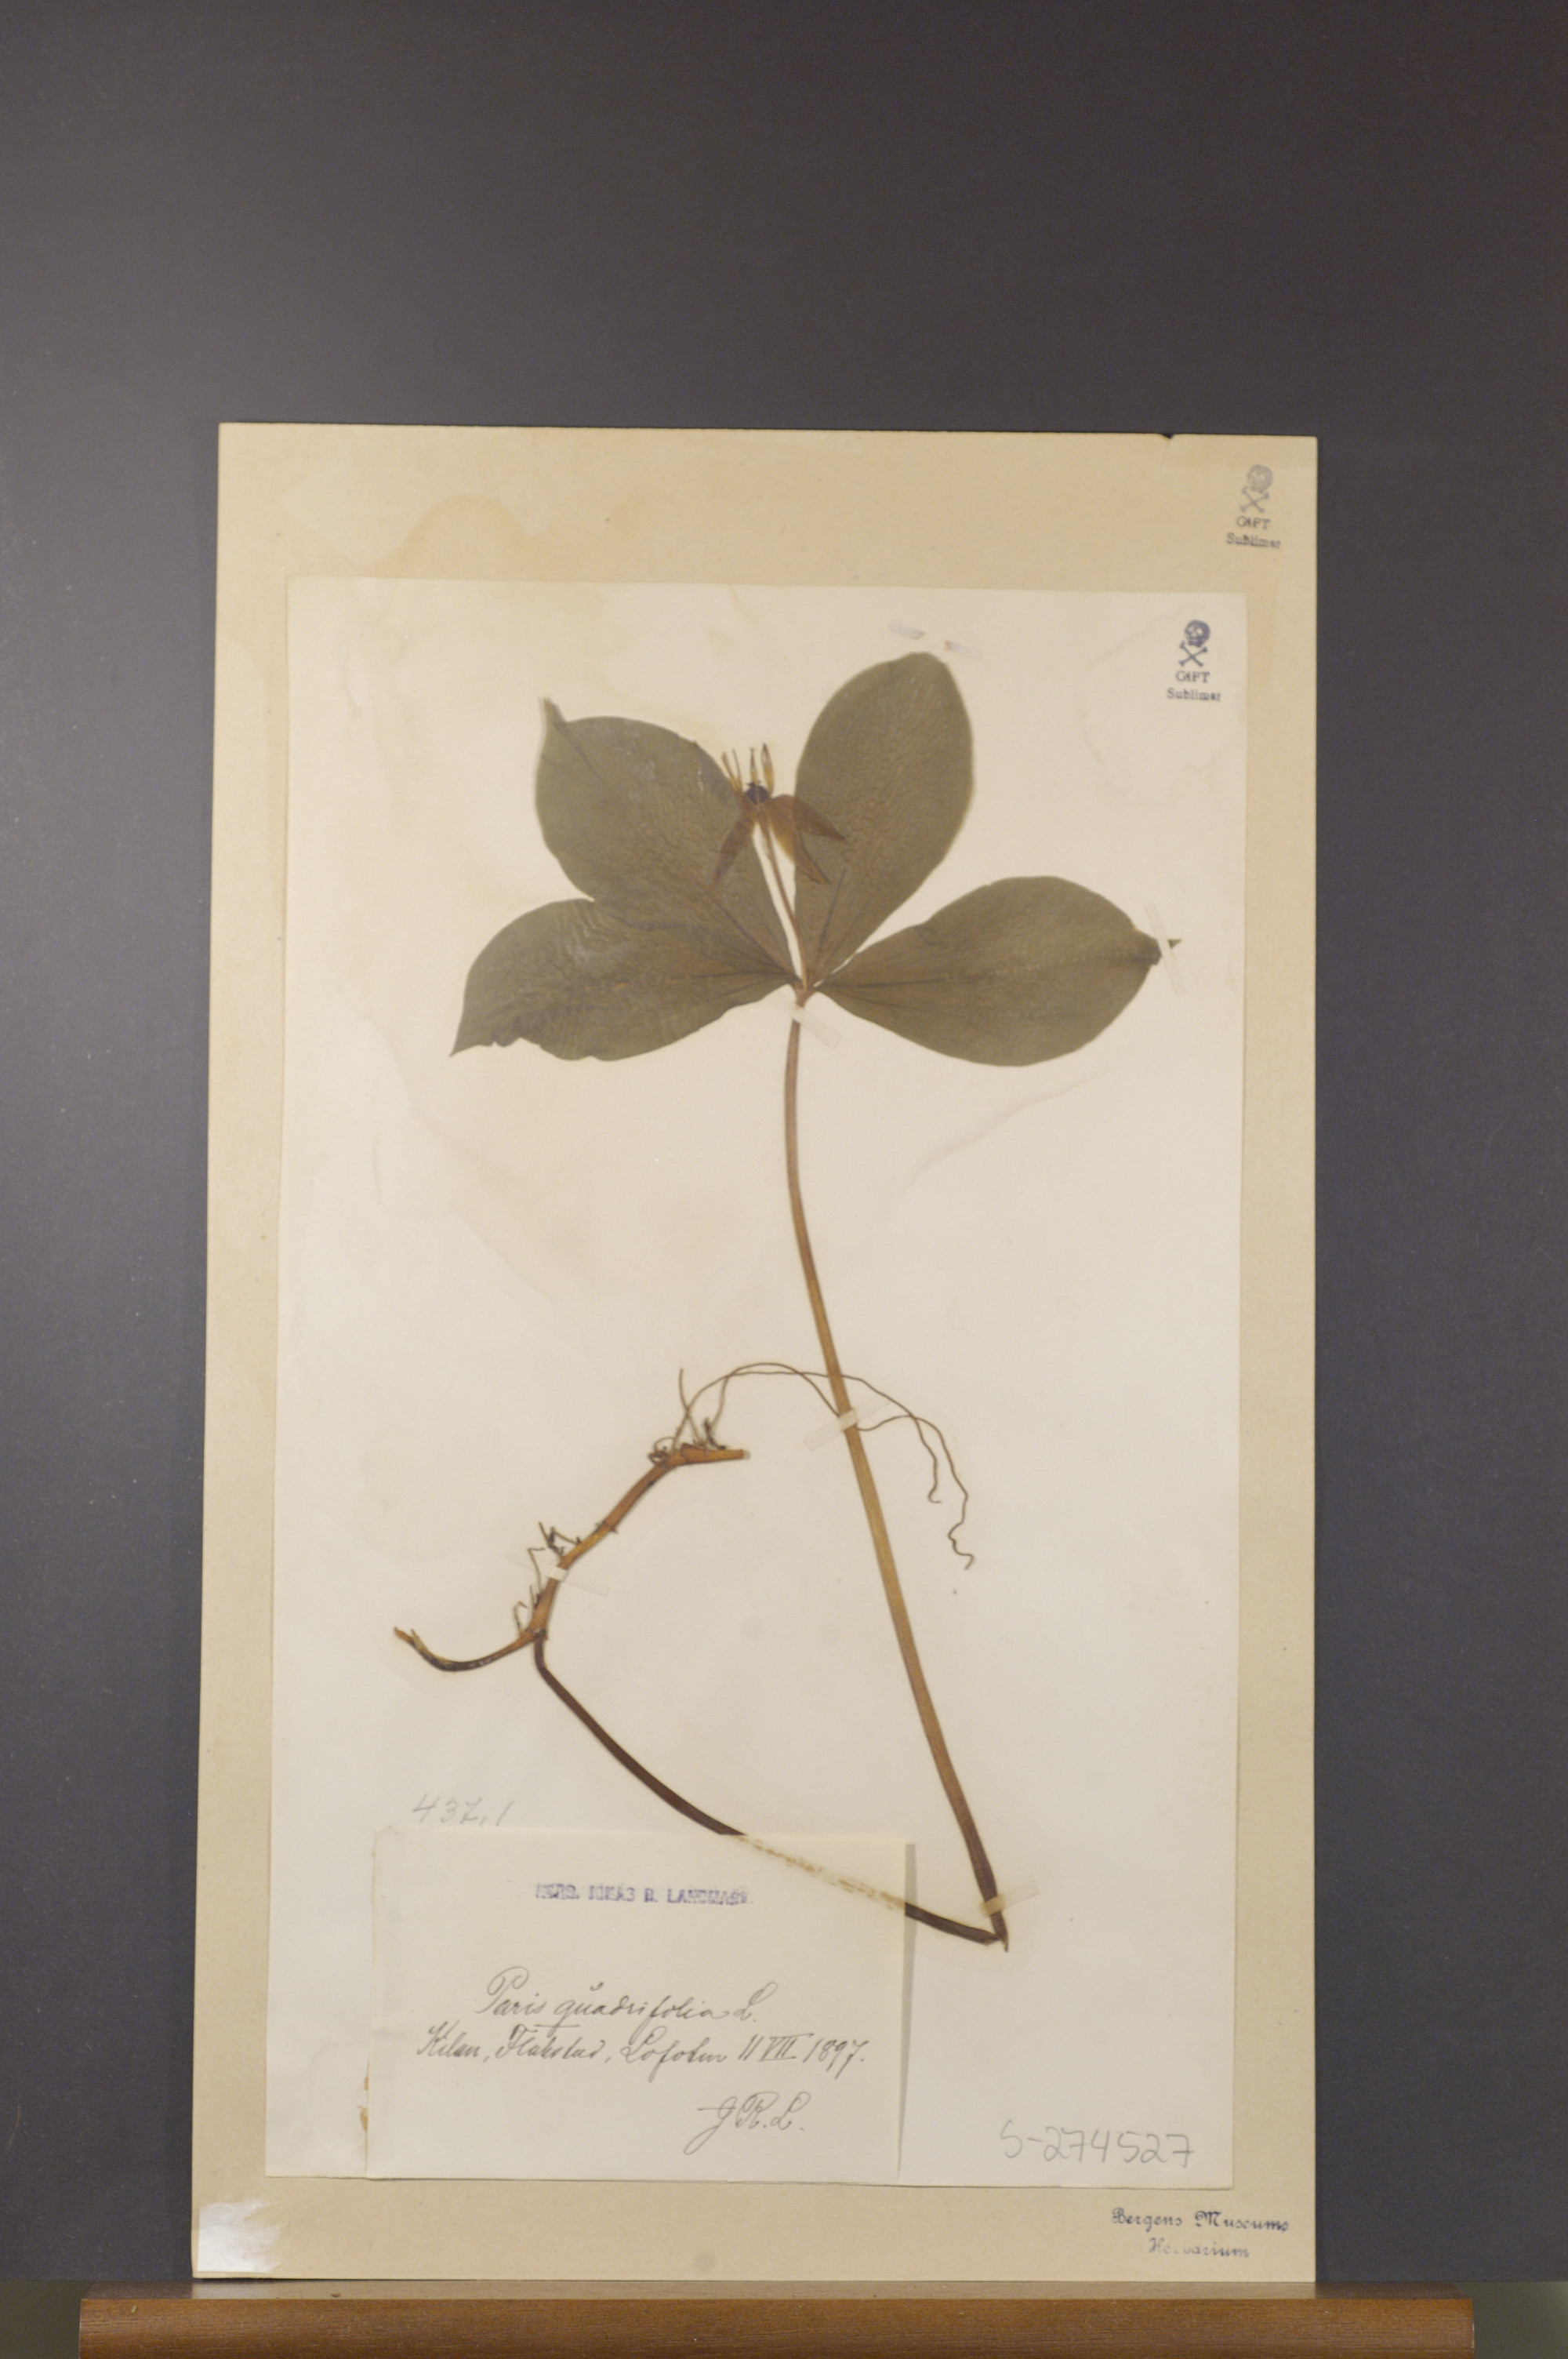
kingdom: Plantae
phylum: Tracheophyta
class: Liliopsida
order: Liliales
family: Melanthiaceae
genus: Paris
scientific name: Paris quadrifolia
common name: Herb-paris
